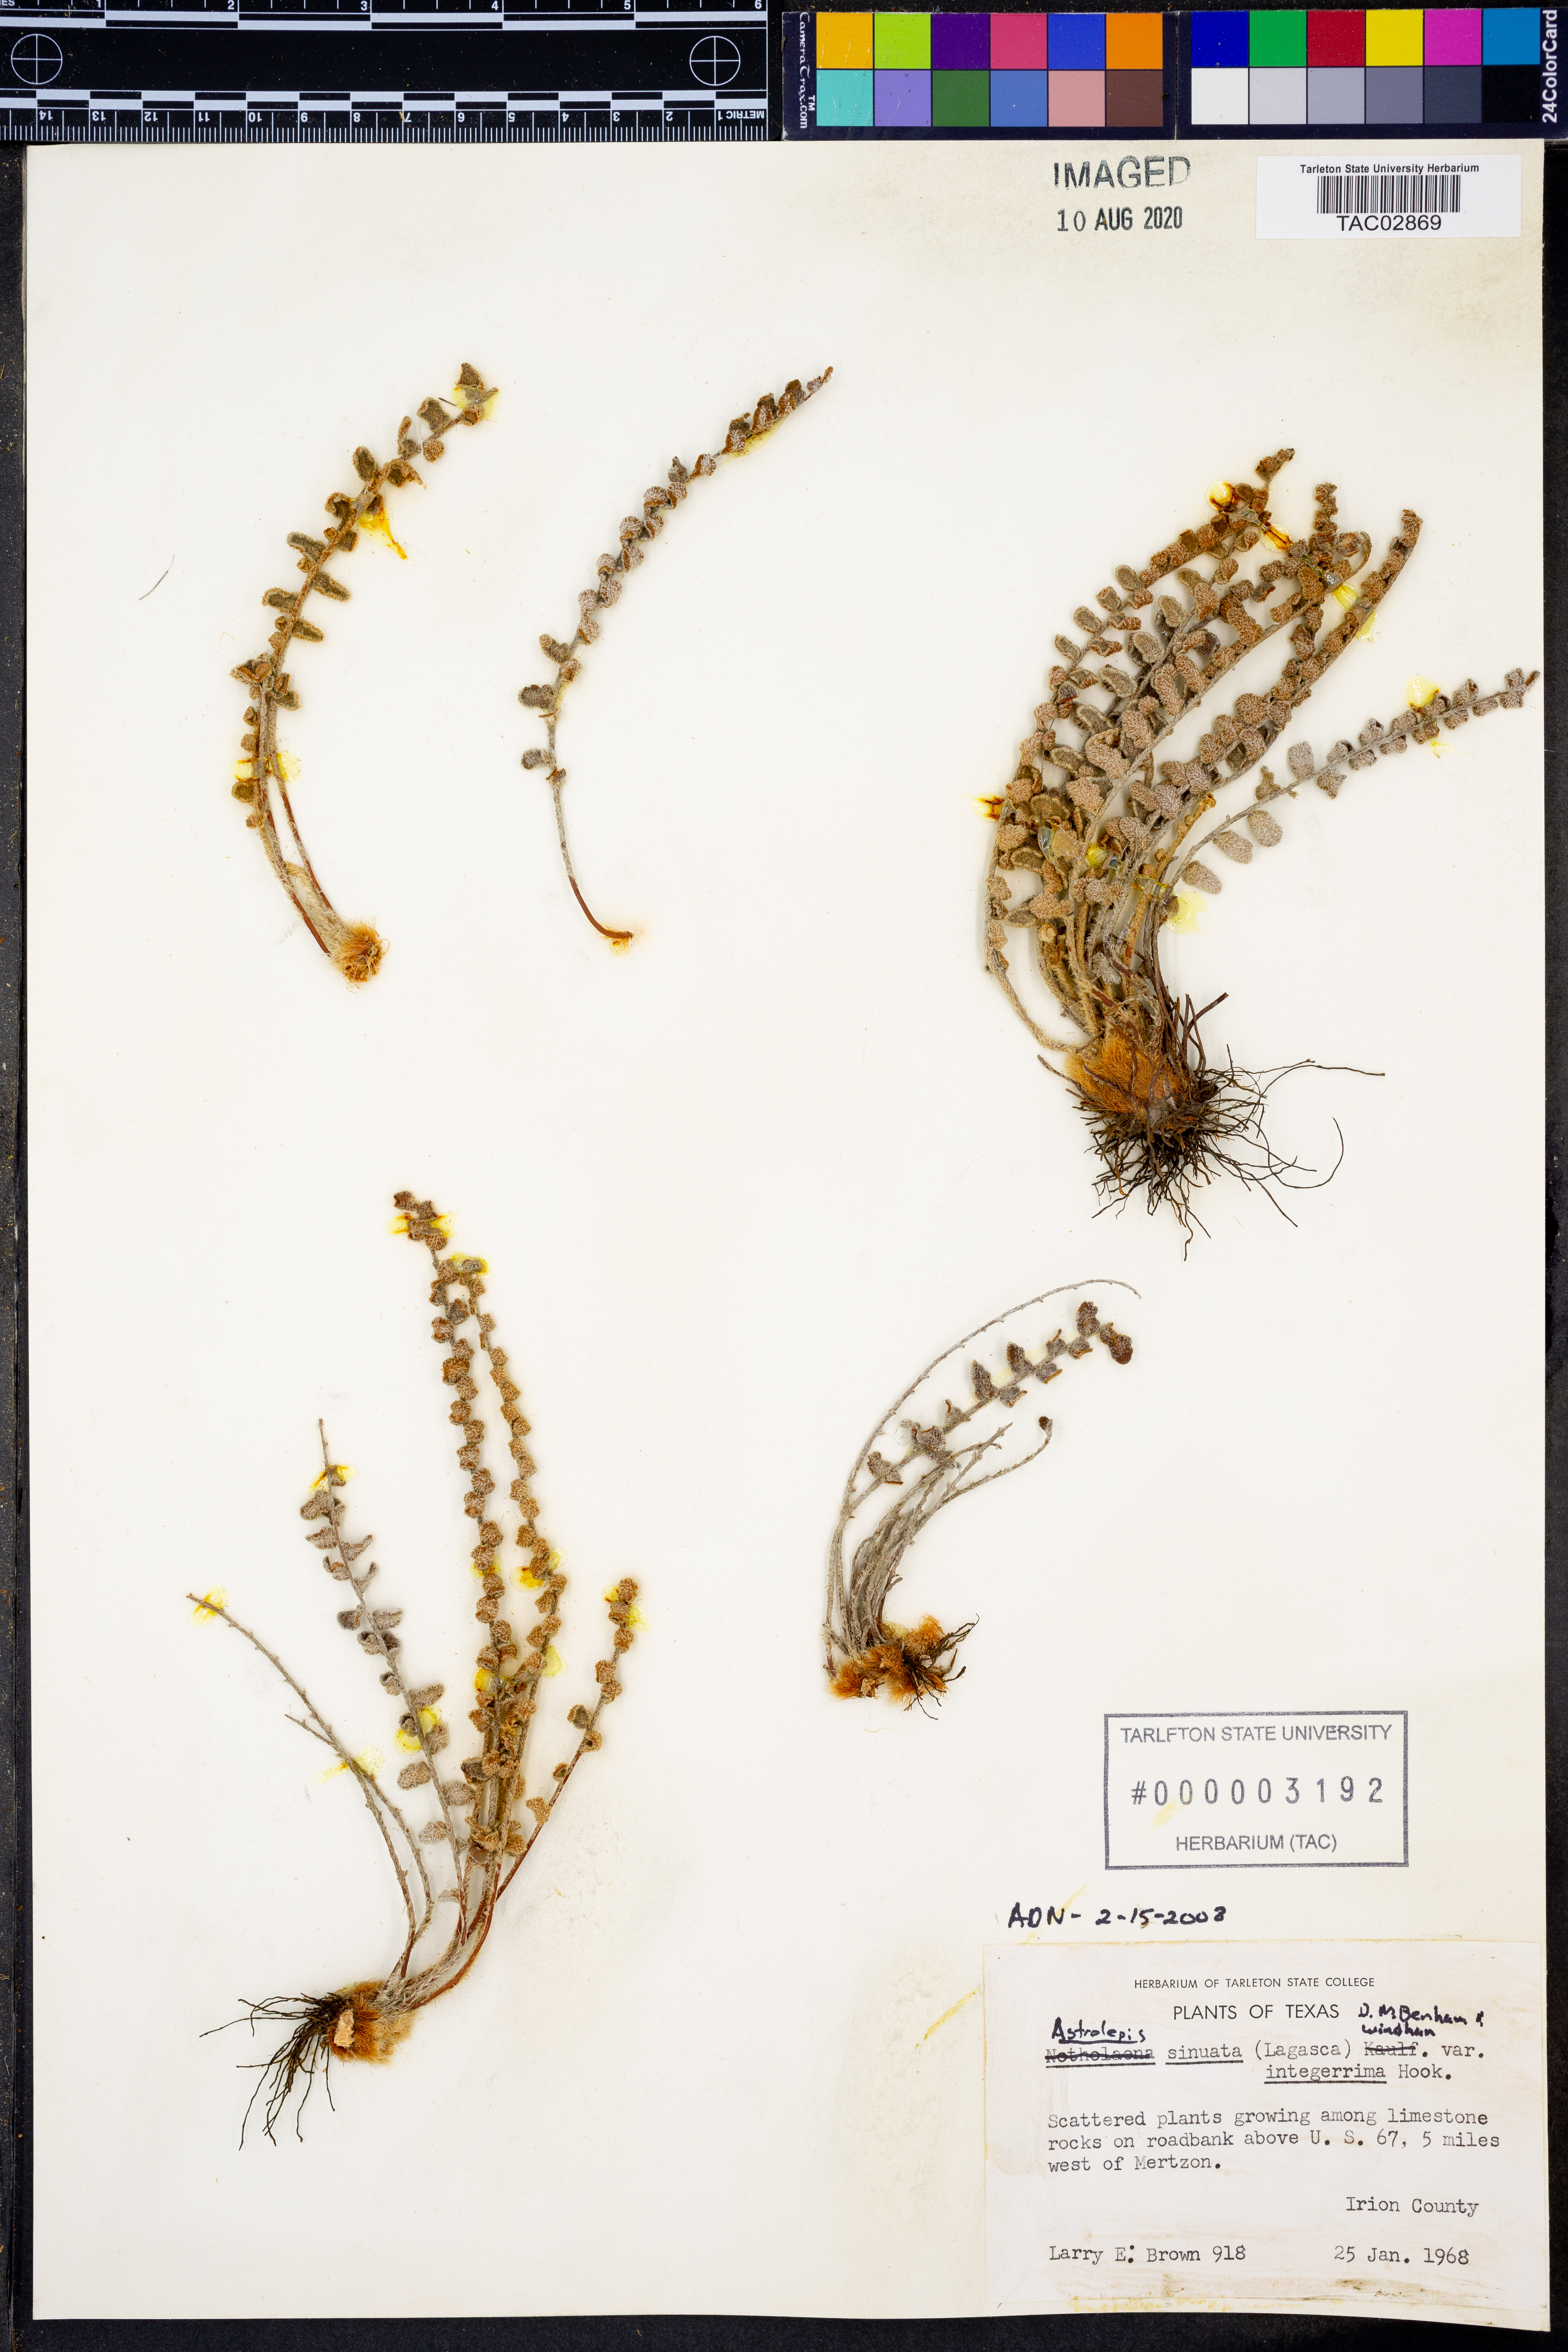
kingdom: Plantae
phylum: Tracheophyta
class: Polypodiopsida
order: Polypodiales
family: Pteridaceae
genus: Astrolepis
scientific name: Astrolepis sinuata
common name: Wavy scaly cloakfern
